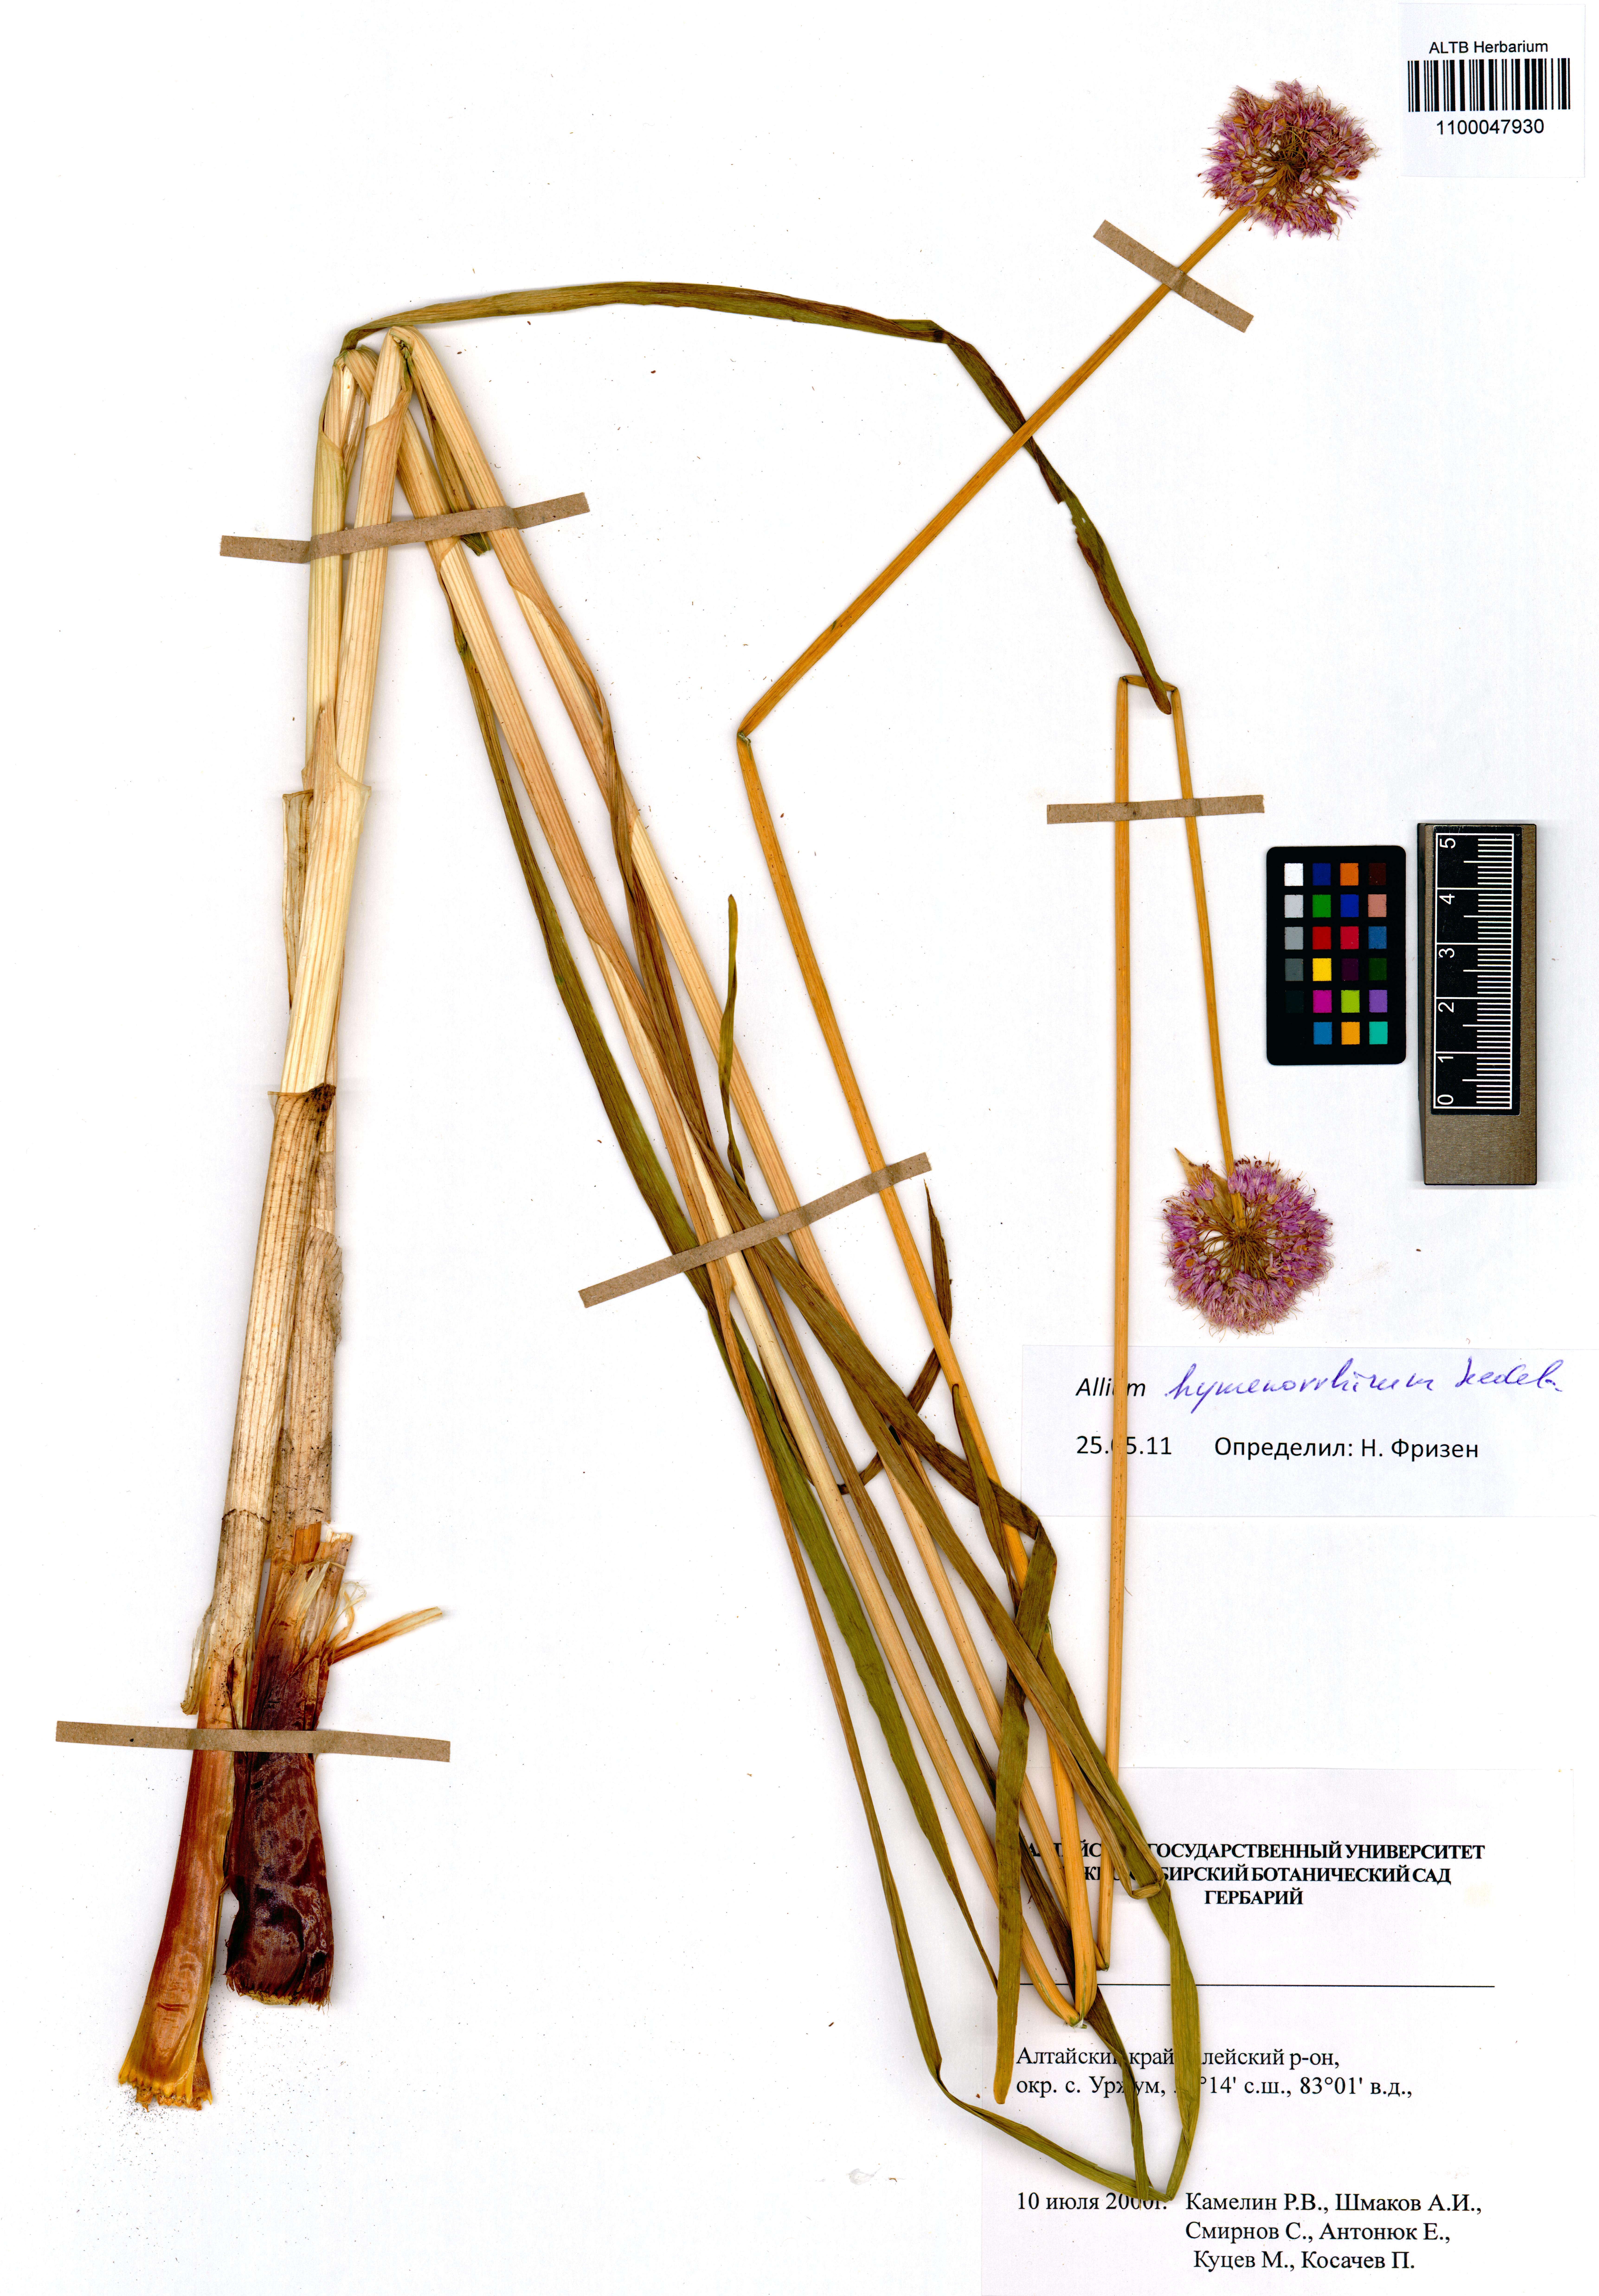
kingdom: Plantae
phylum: Tracheophyta
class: Liliopsida
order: Asparagales
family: Amaryllidaceae
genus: Allium
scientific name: Allium hymenorhizum
